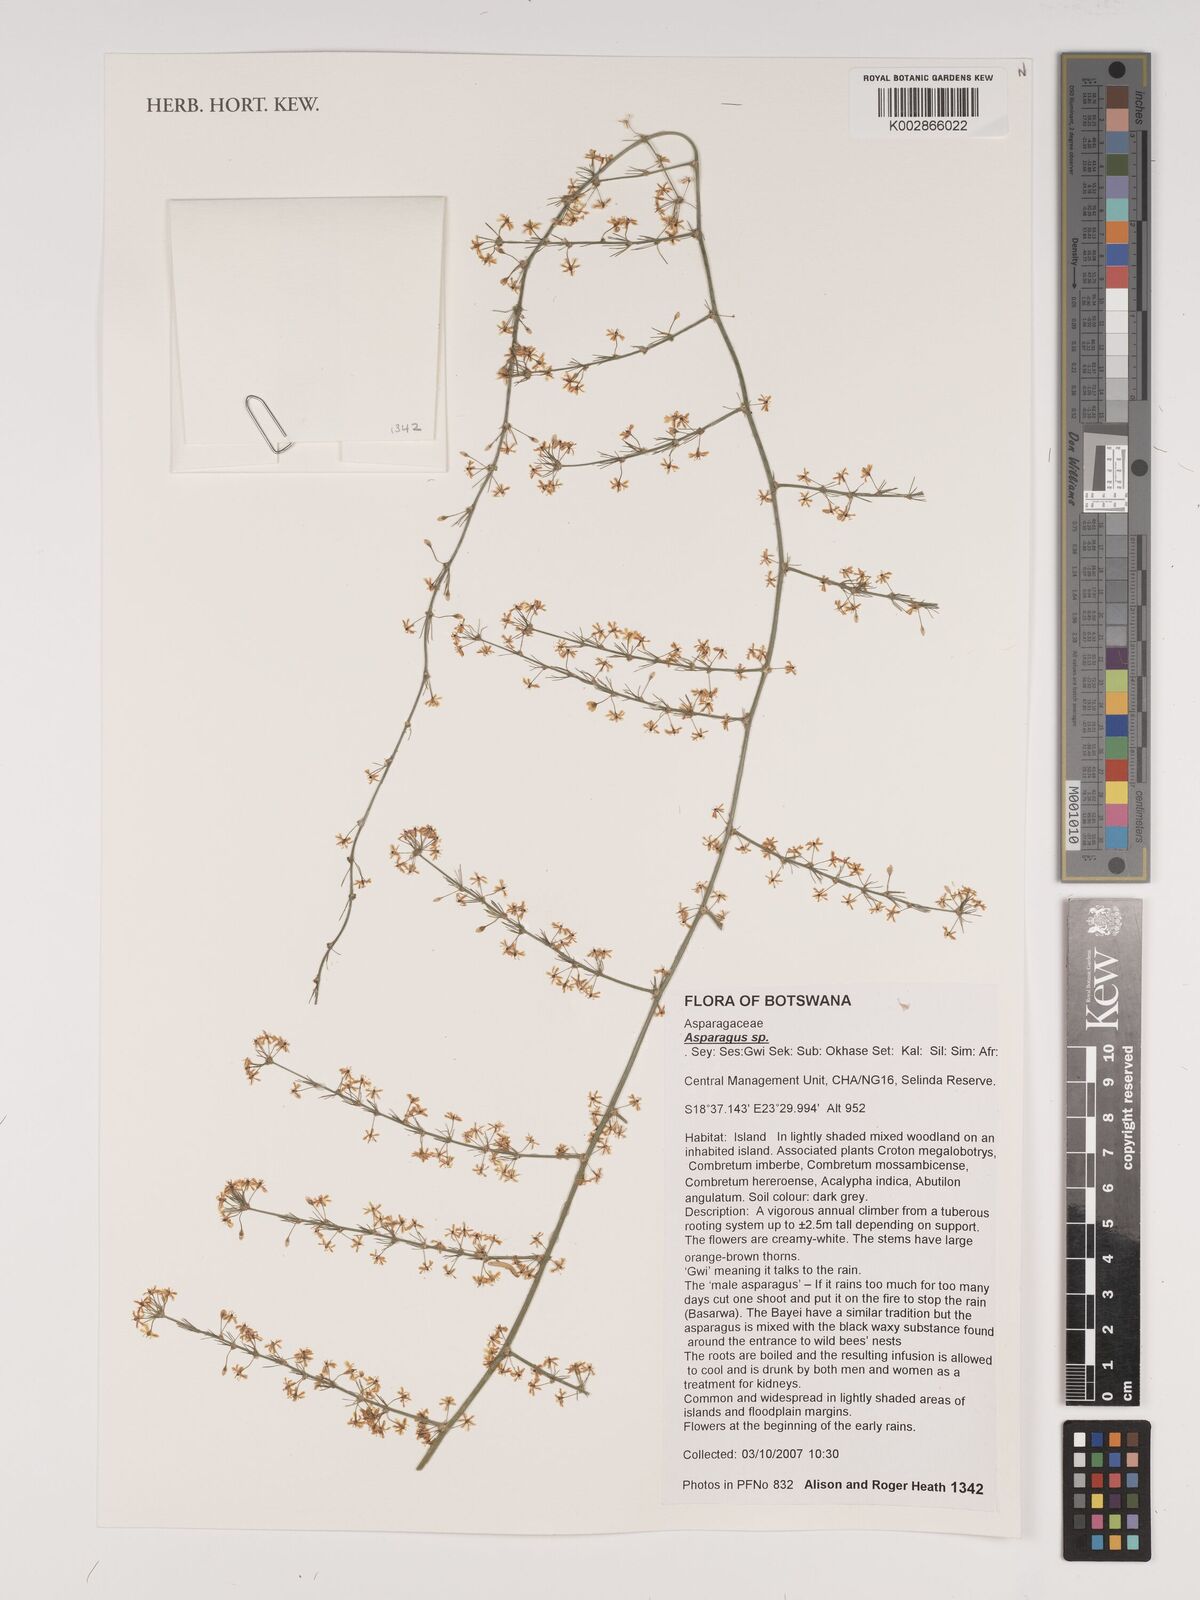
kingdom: Plantae
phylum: Tracheophyta
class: Liliopsida
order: Asparagales
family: Asparagaceae
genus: Asparagus
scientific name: Asparagus
